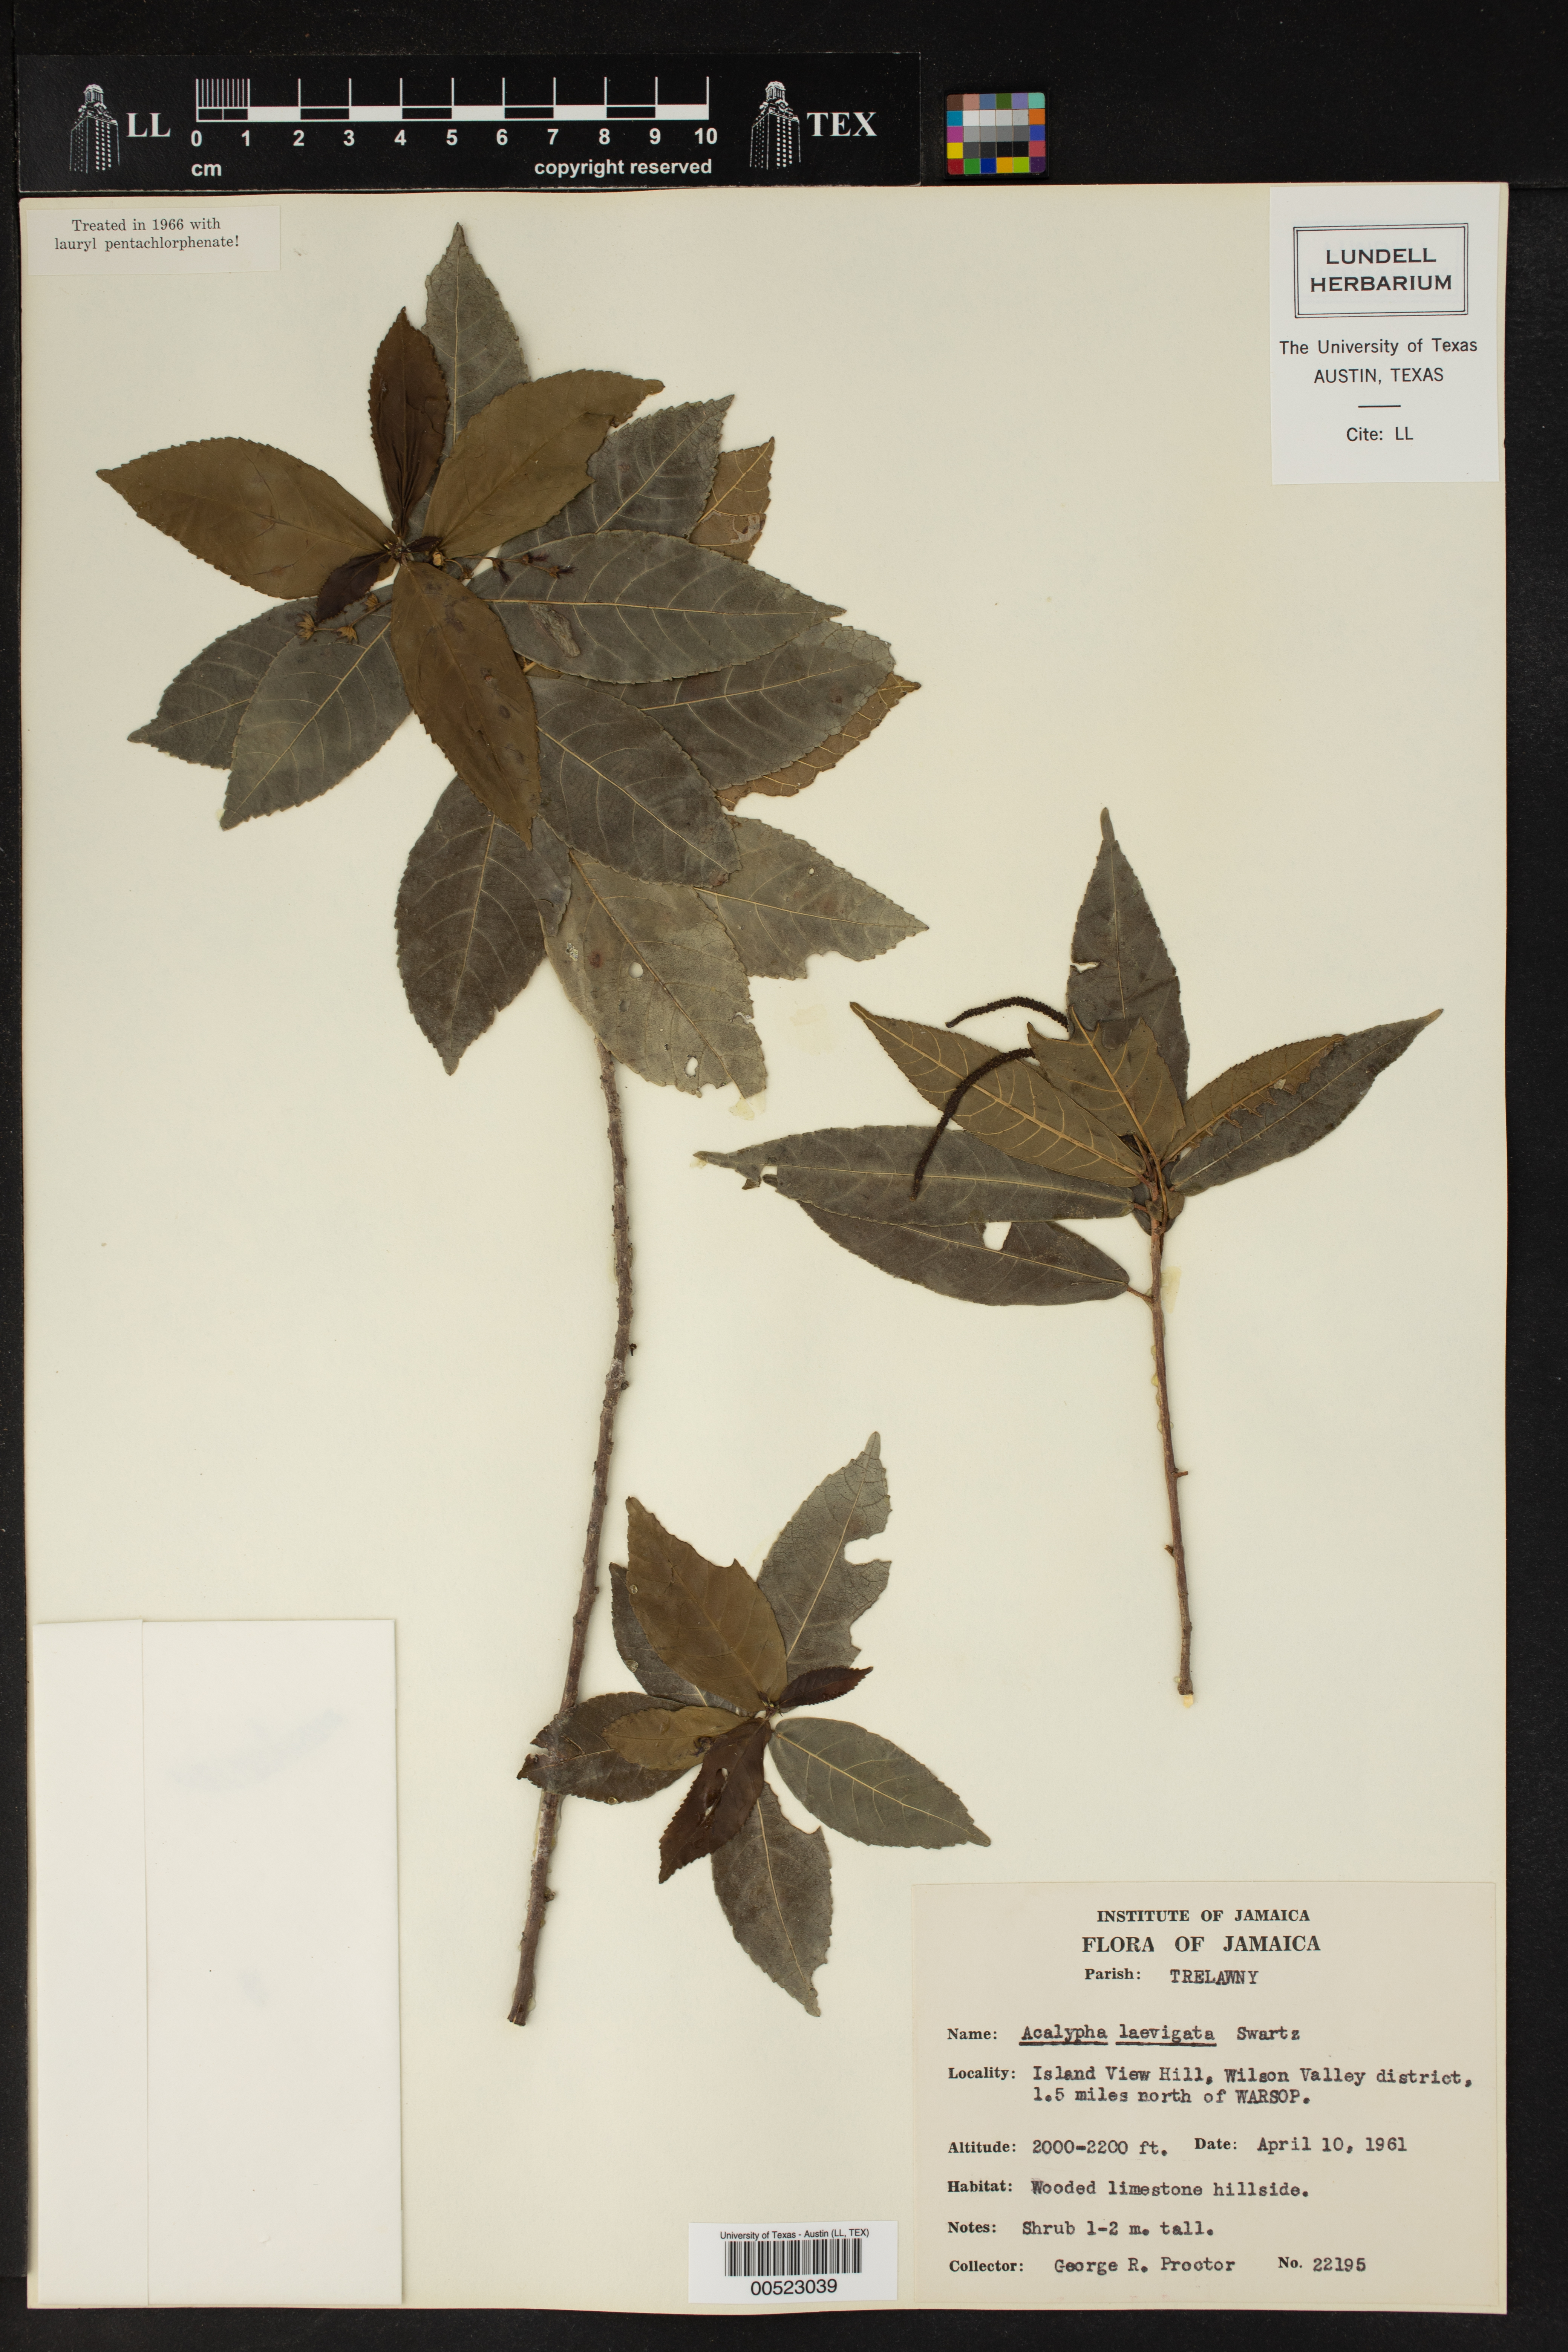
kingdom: Plantae
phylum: Tracheophyta
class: Magnoliopsida
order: Malpighiales
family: Euphorbiaceae
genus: Acalypha
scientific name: Acalypha laevigata
